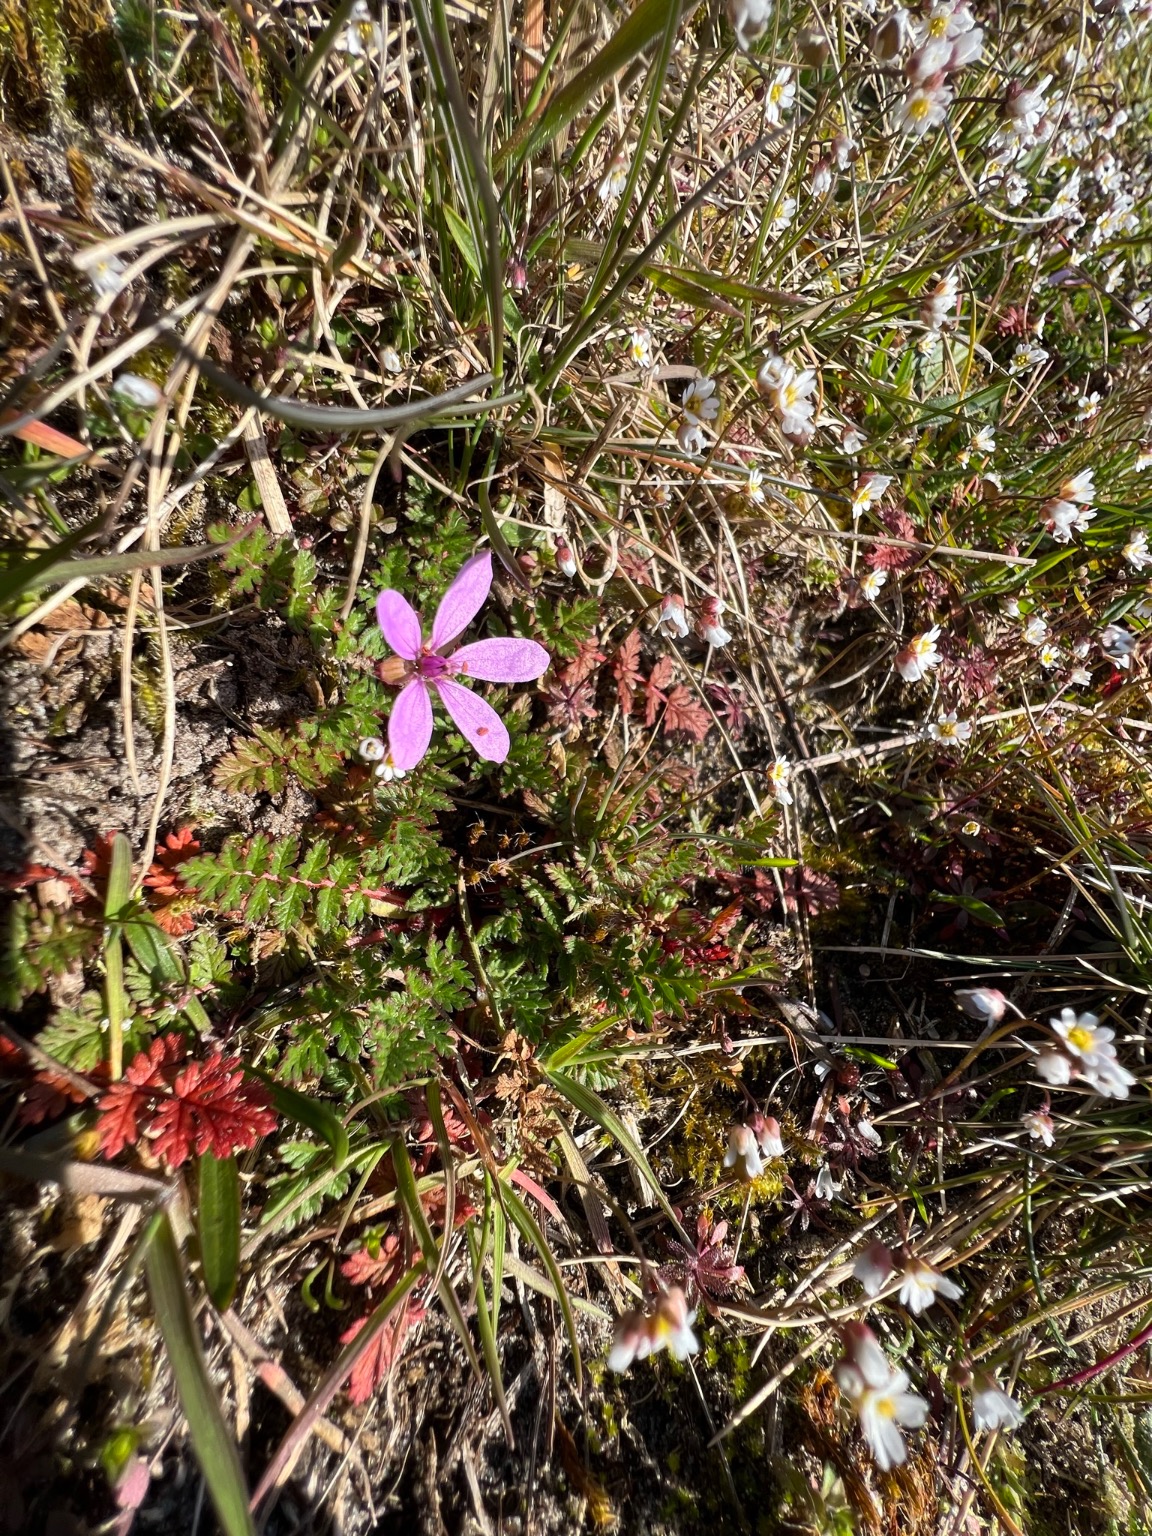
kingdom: Plantae
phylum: Tracheophyta
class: Magnoliopsida
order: Geraniales
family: Geraniaceae
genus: Erodium
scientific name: Erodium cicutarium
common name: Hejrenæb
